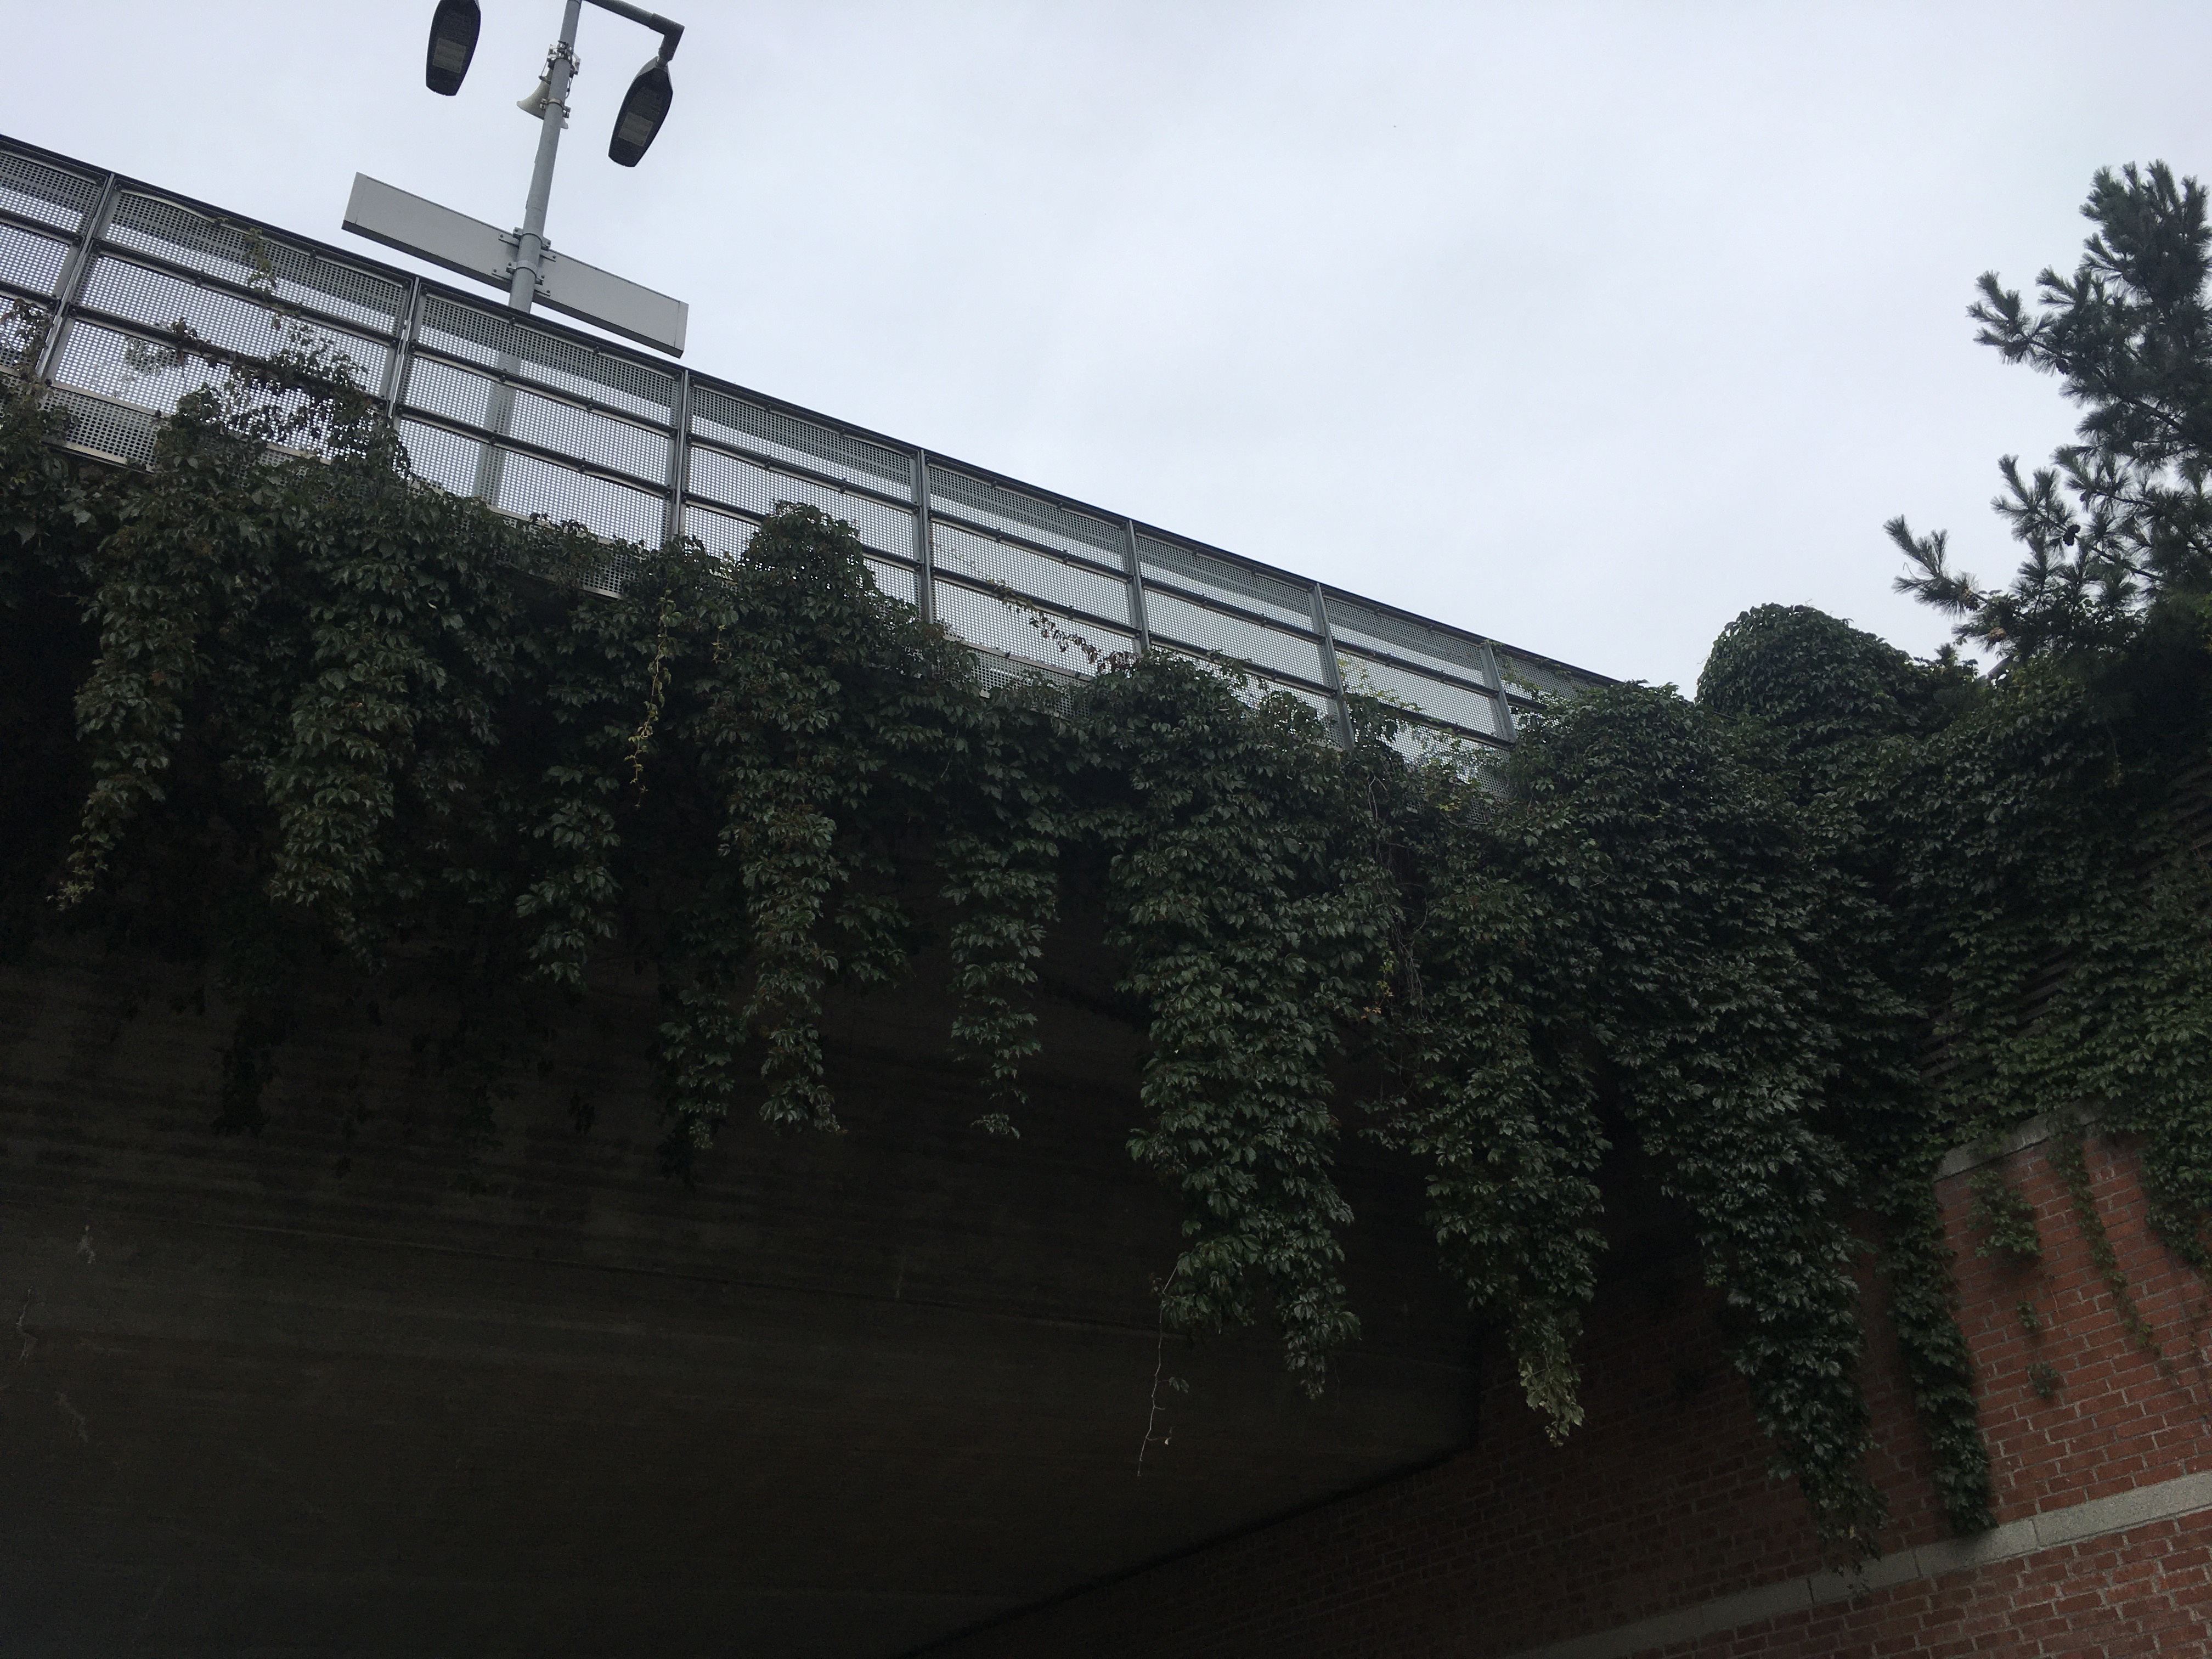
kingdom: Plantae
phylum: Tracheophyta
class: Magnoliopsida
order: Vitales
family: Vitaceae
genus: Parthenocissus
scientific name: Parthenocissus quinquefolia
